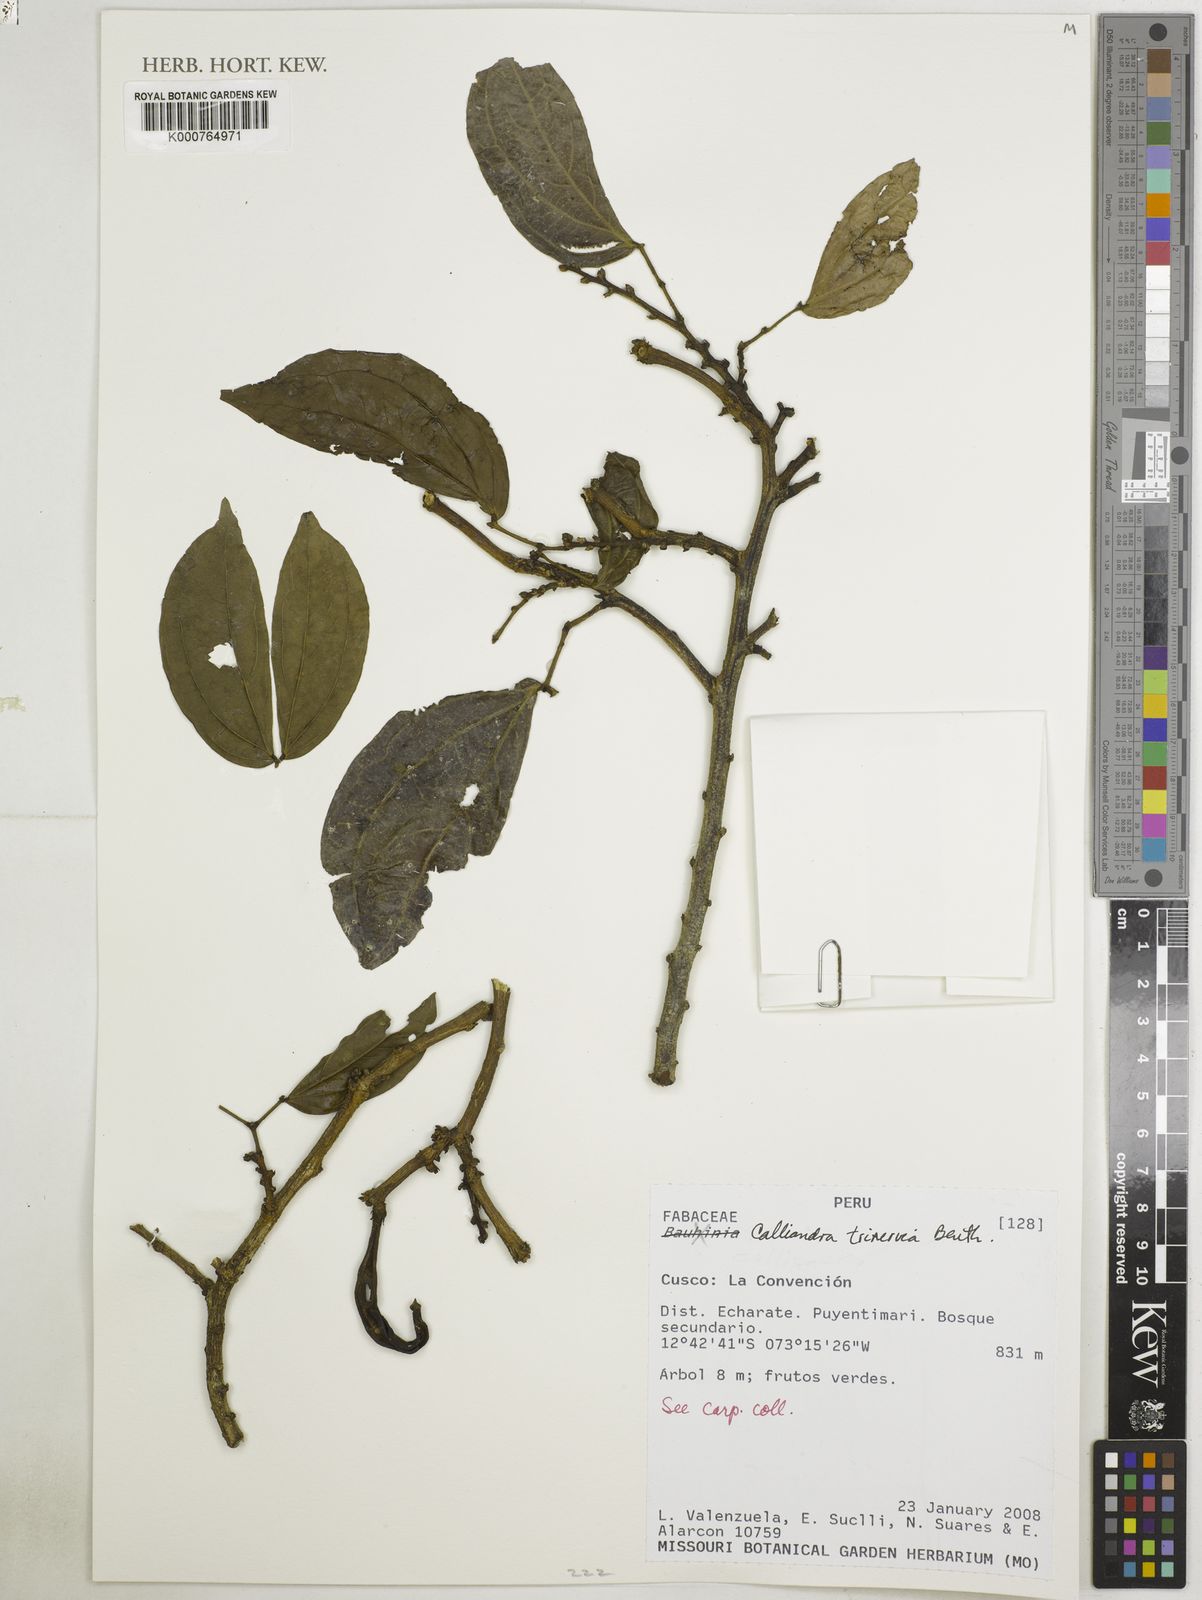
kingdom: Plantae
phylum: Tracheophyta
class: Magnoliopsida
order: Fabales
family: Fabaceae
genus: Calliandra
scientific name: Calliandra trinervia
